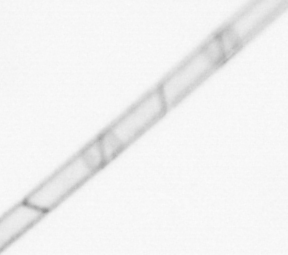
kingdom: Chromista
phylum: Ochrophyta
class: Bacillariophyceae
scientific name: Bacillariophyceae
